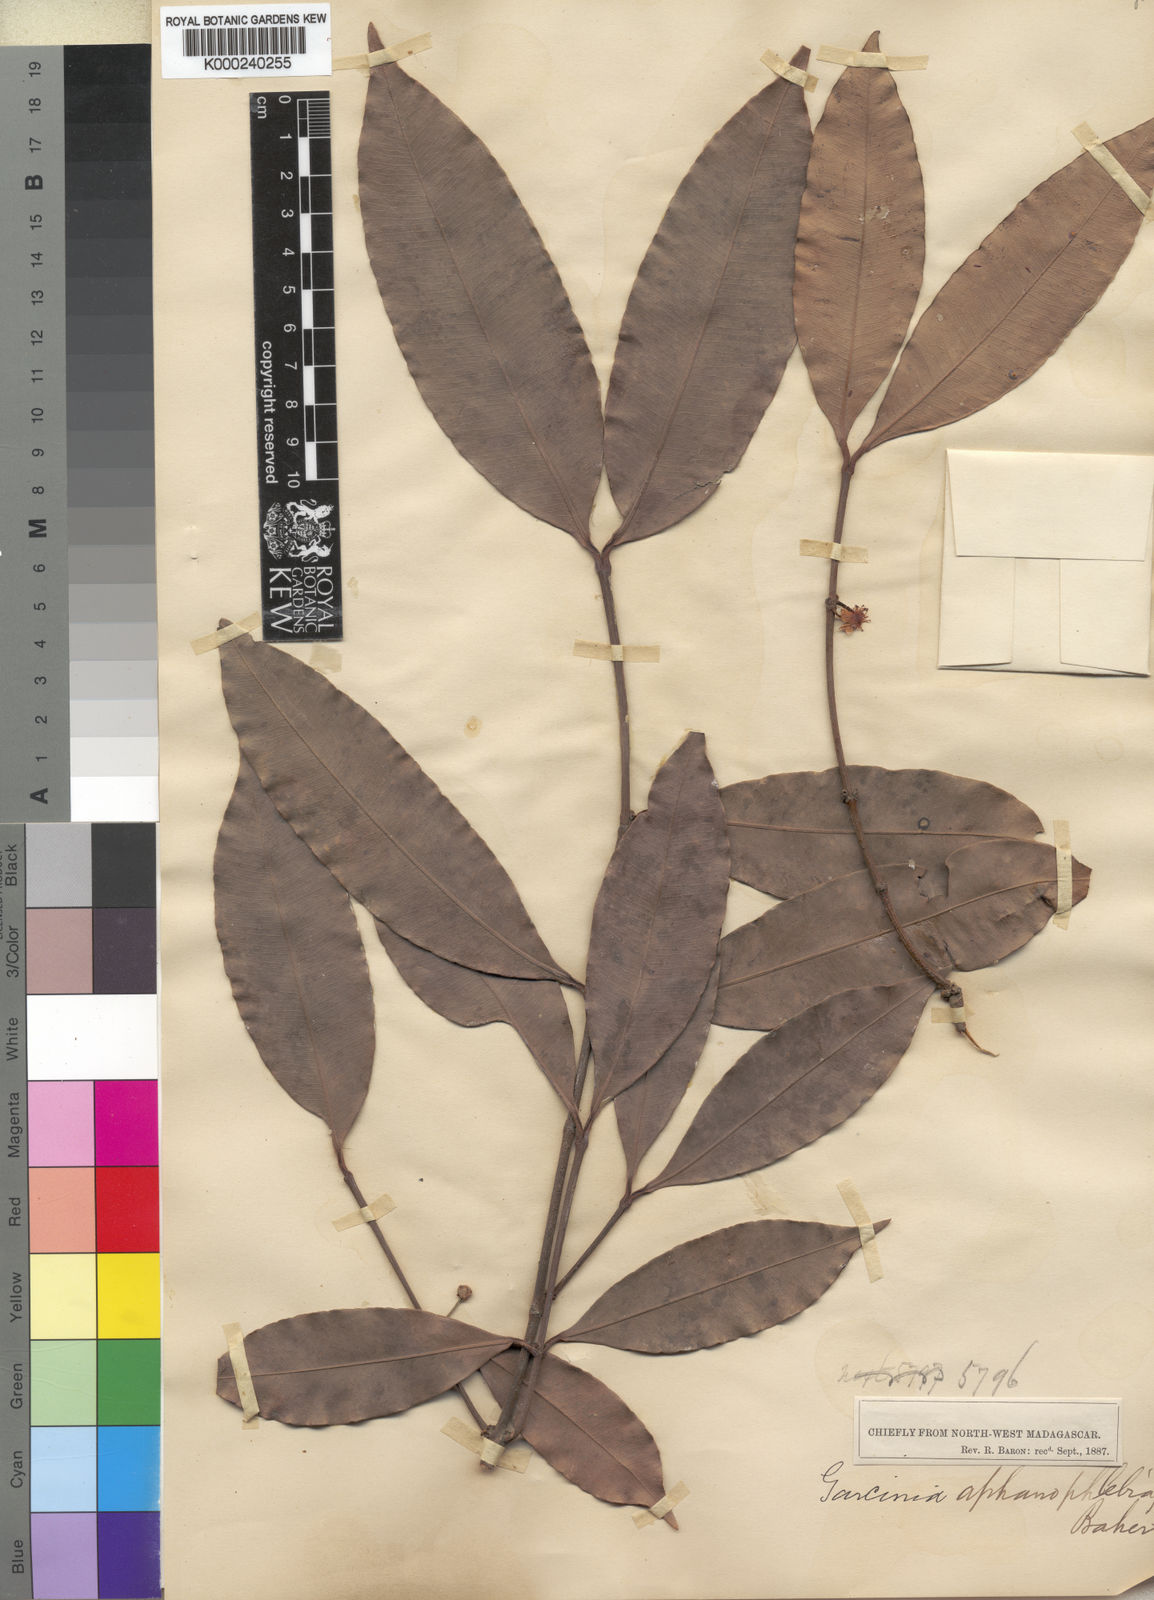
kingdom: Plantae
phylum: Tracheophyta
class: Magnoliopsida
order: Malpighiales
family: Clusiaceae
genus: Garcinia
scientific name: Garcinia aphanophlebia
